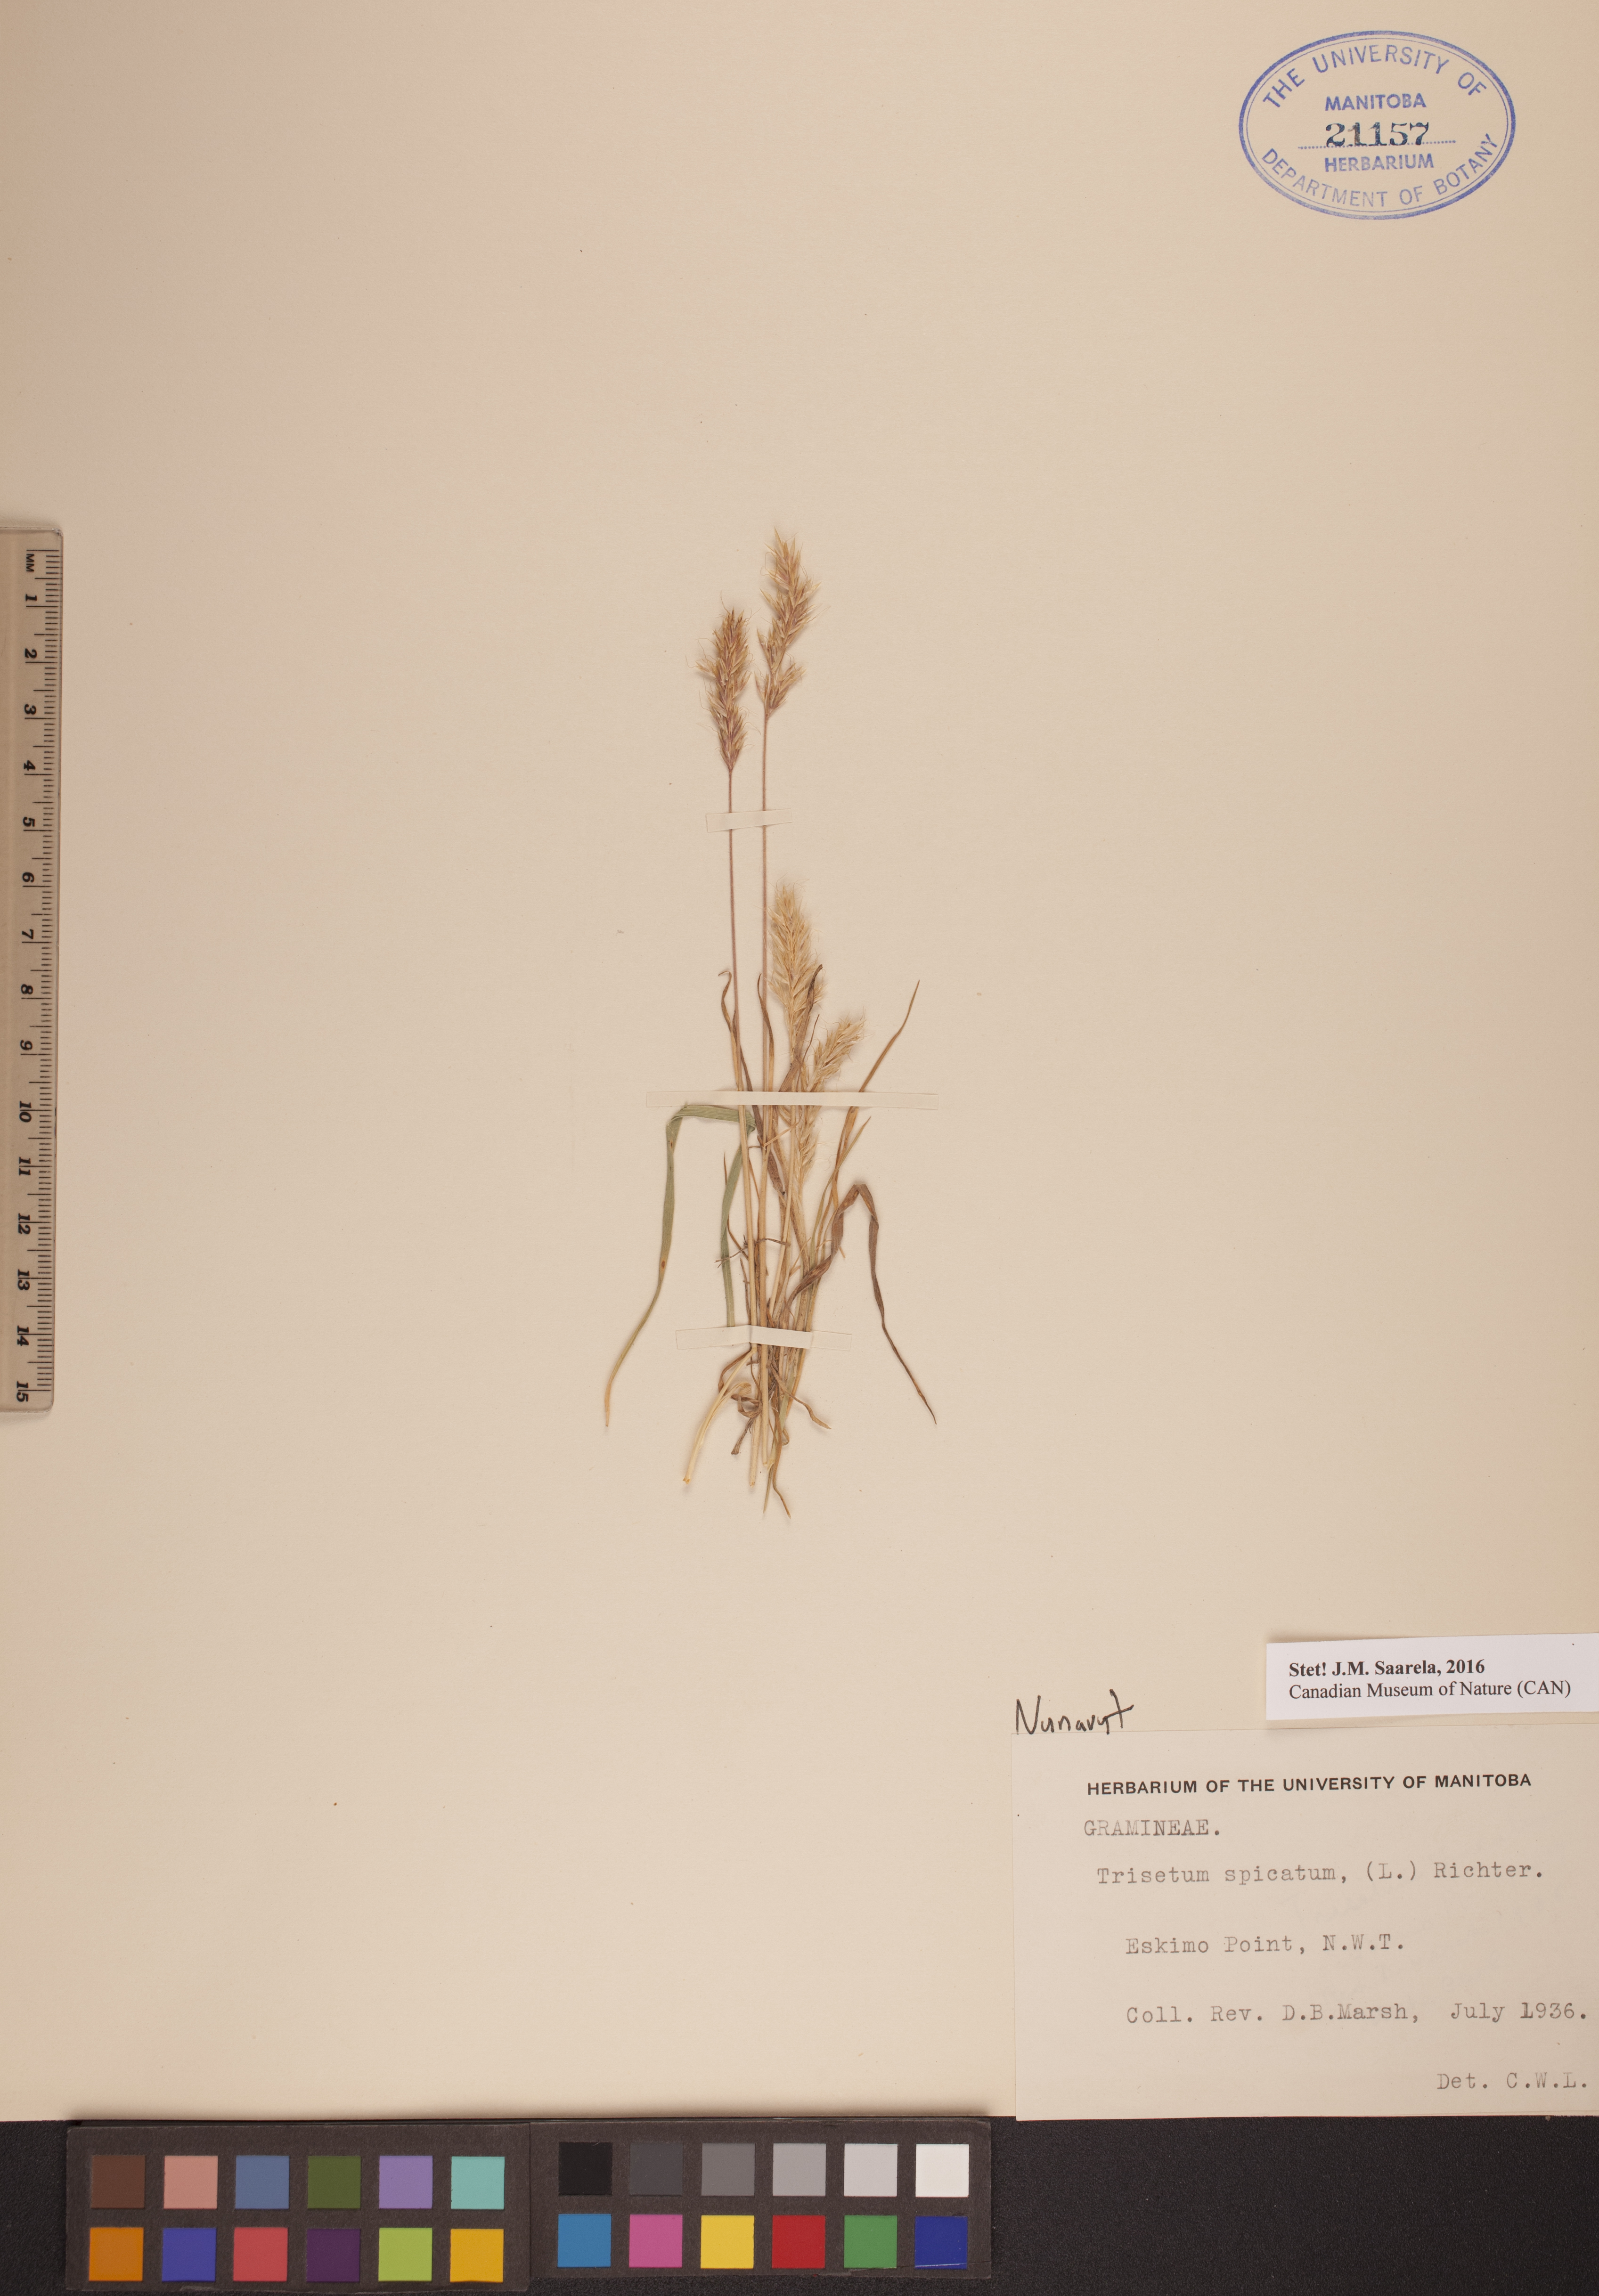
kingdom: Plantae
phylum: Tracheophyta
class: Liliopsida
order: Poales
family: Poaceae
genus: Koeleria
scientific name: Koeleria spicata
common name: Mountain trisetum
